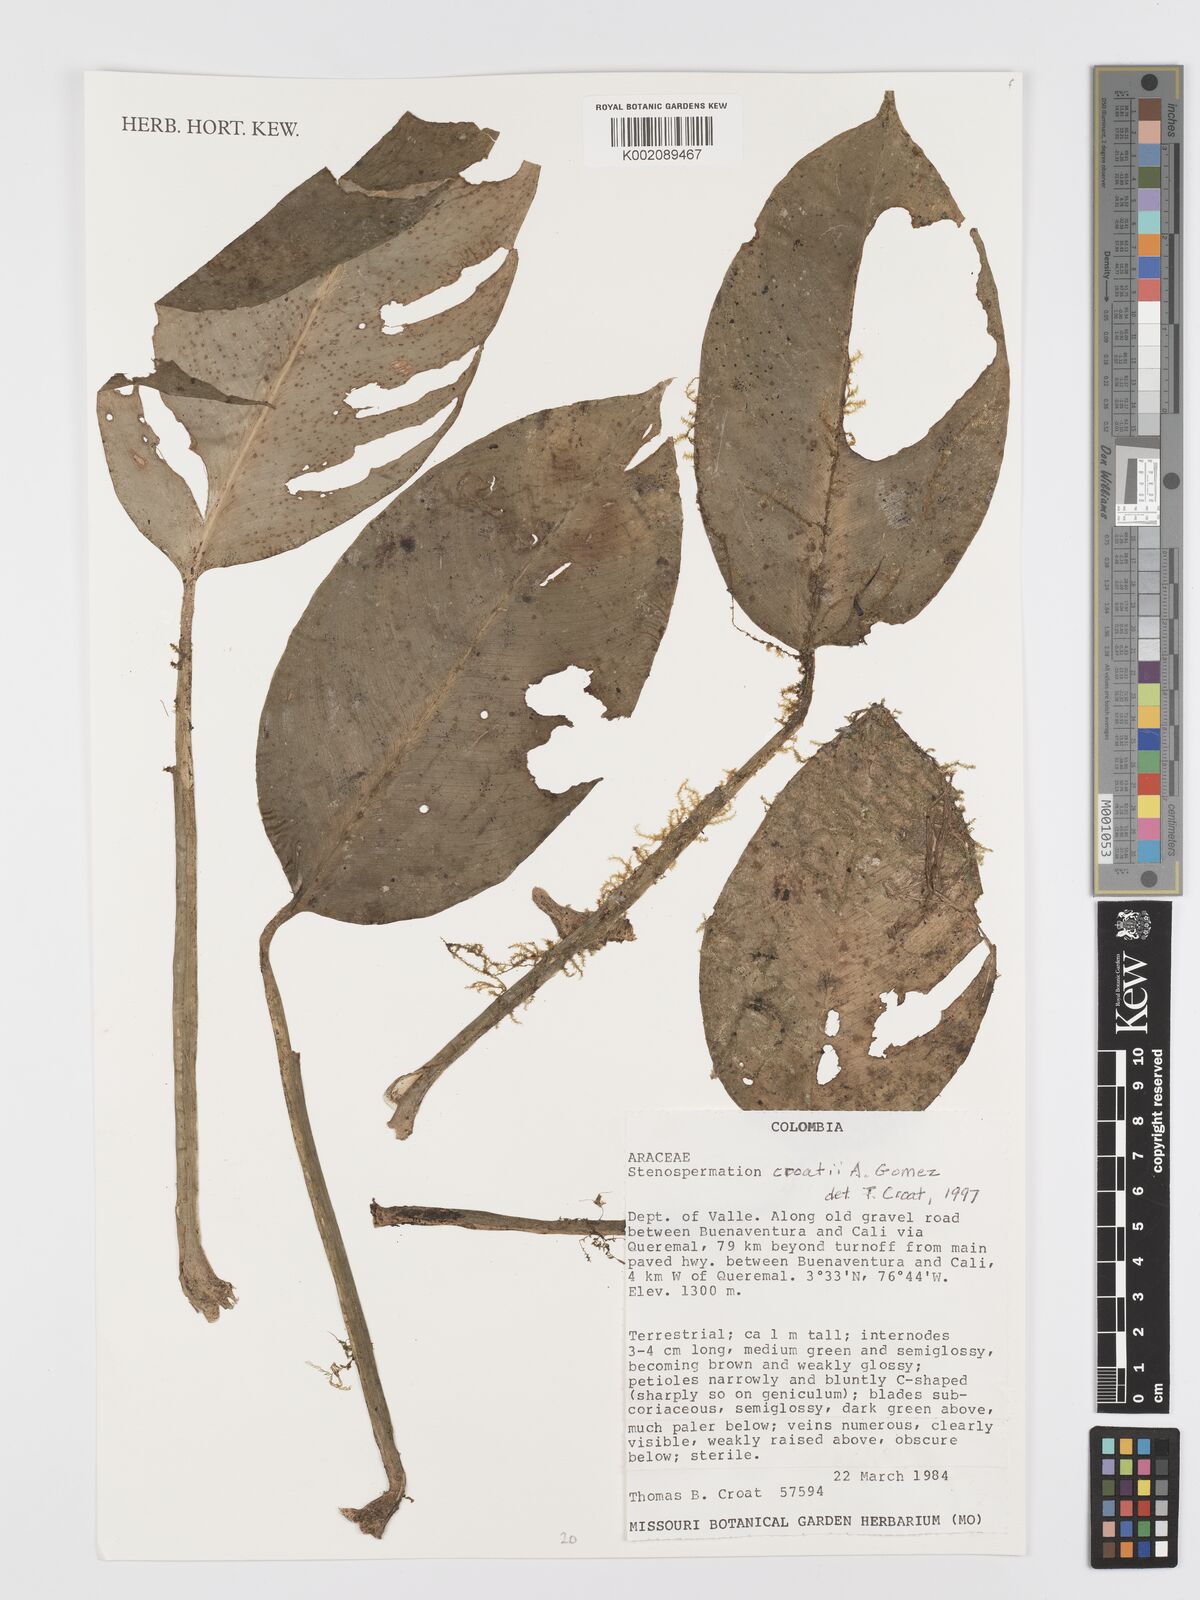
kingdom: Plantae
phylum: Tracheophyta
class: Liliopsida
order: Alismatales
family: Araceae
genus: Stenospermation
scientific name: Stenospermation
